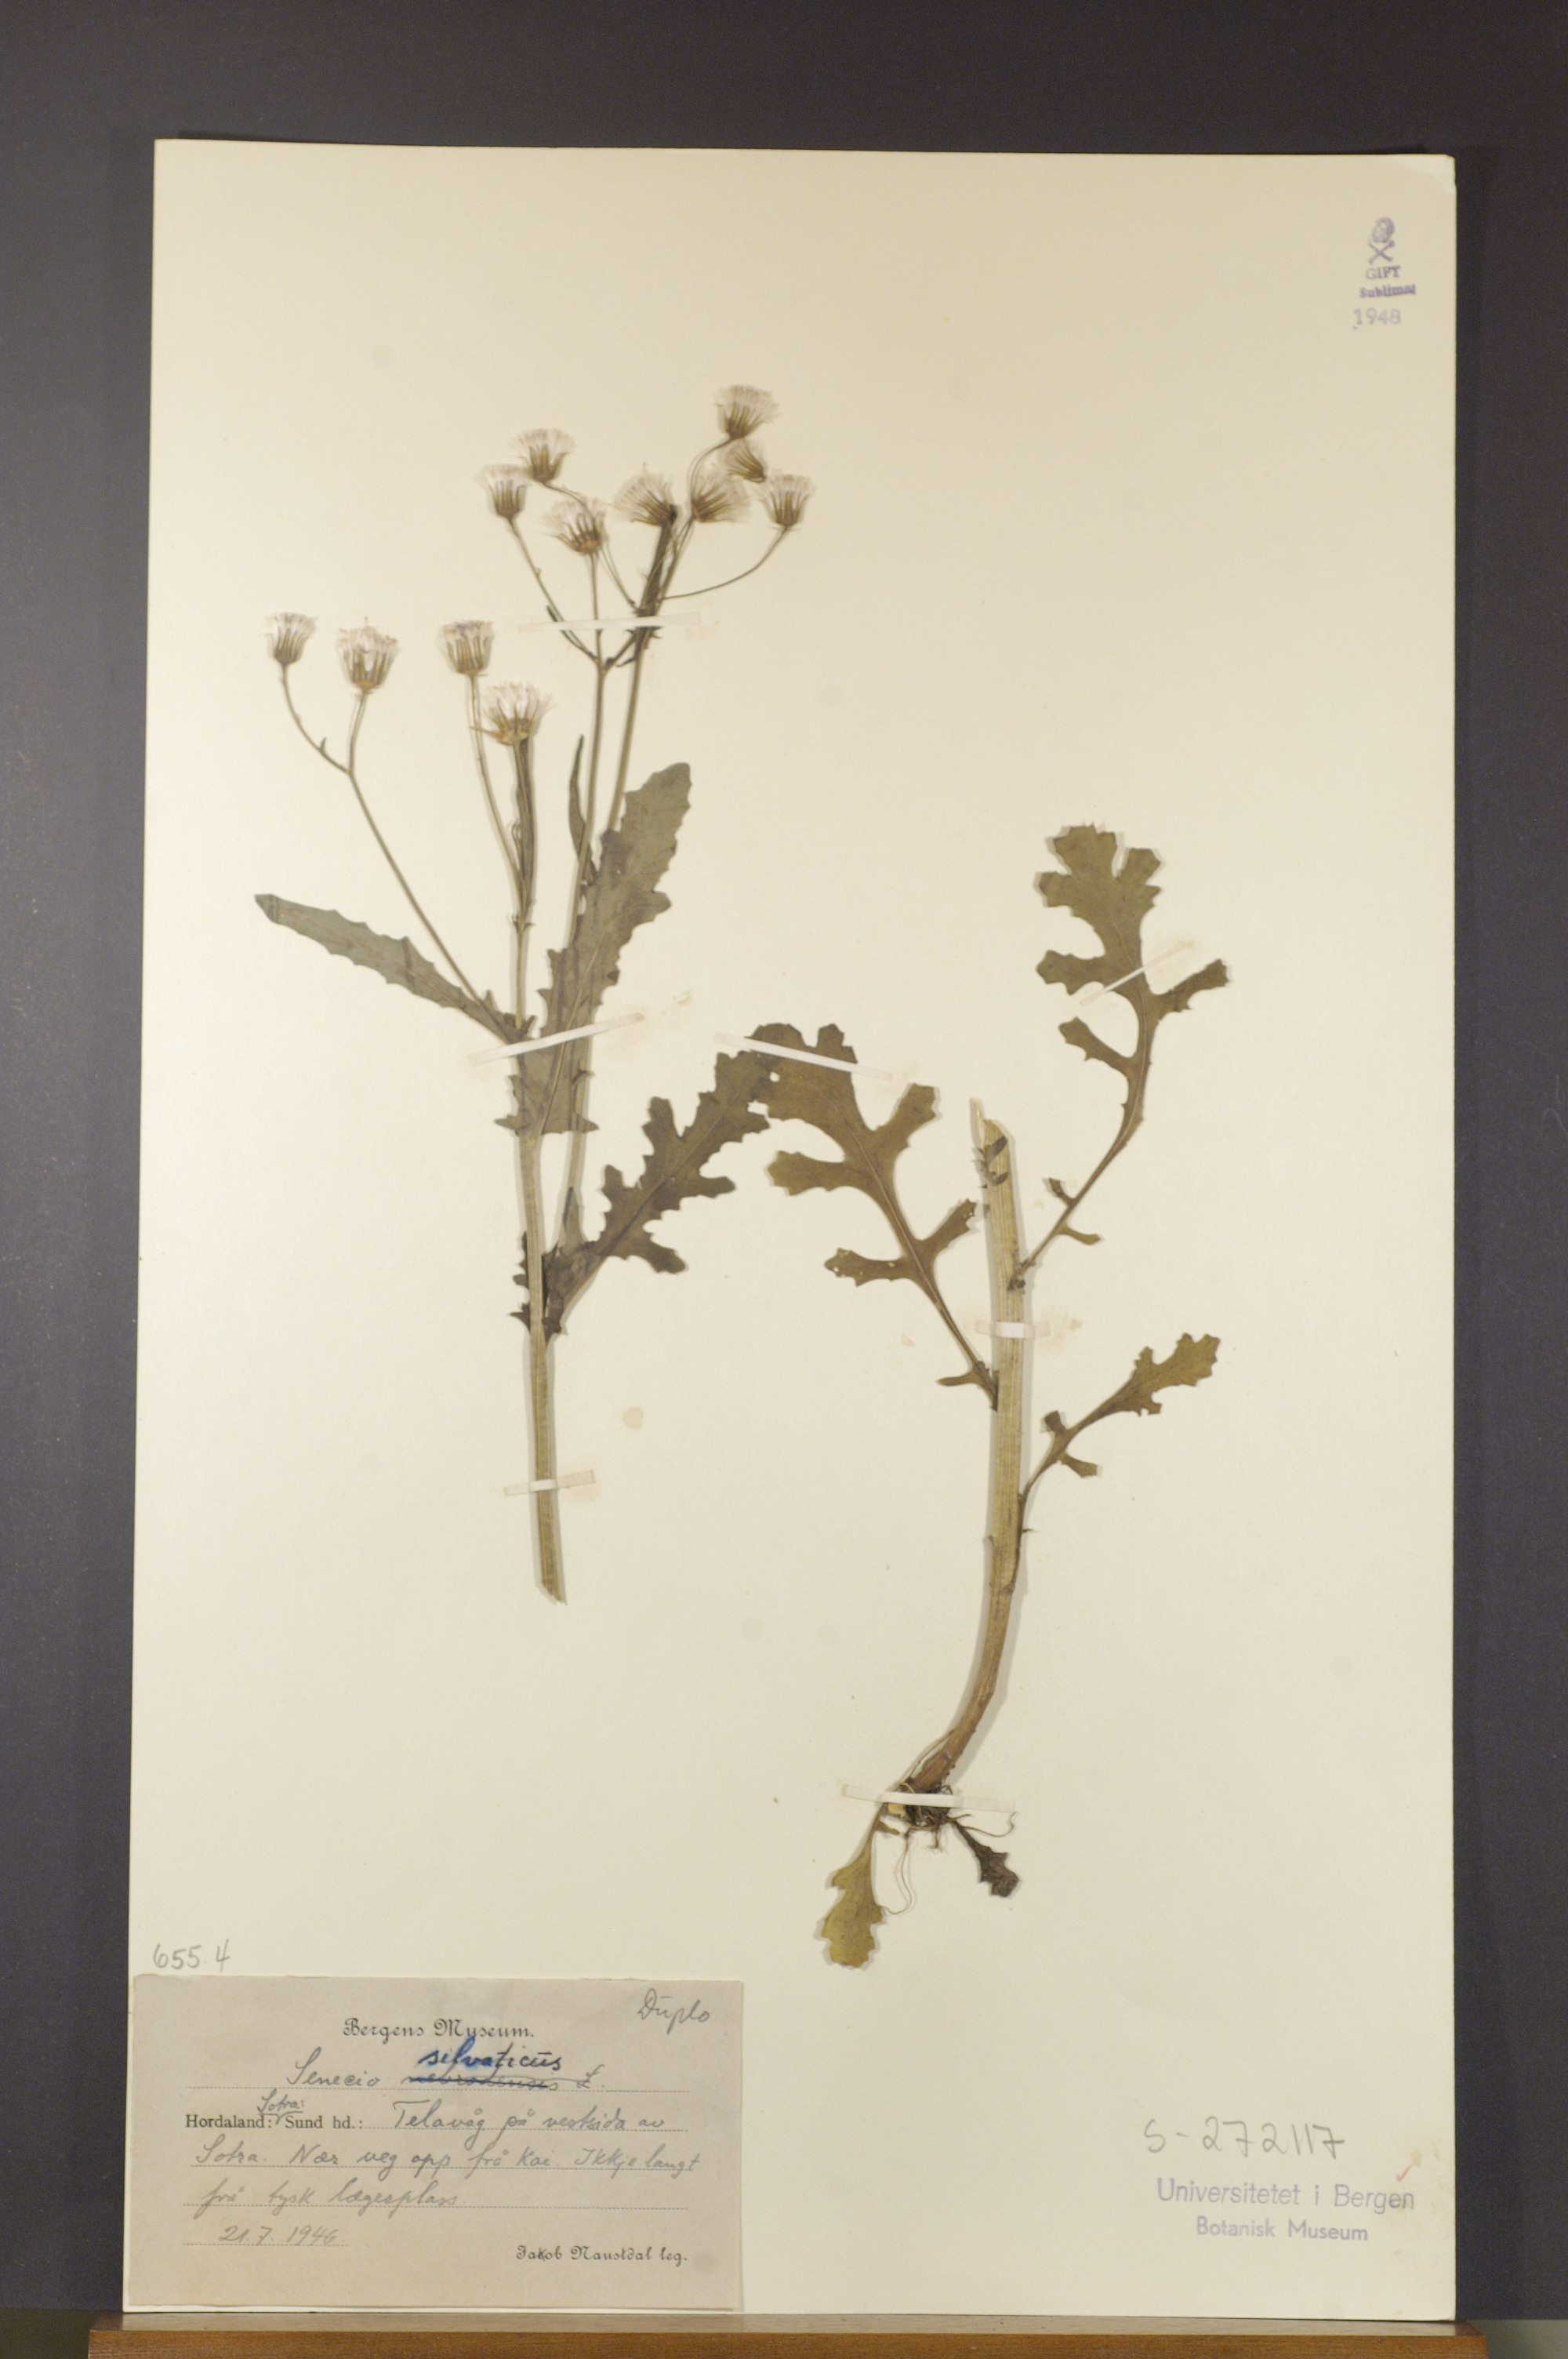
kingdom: Plantae
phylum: Tracheophyta
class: Magnoliopsida
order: Asterales
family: Asteraceae
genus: Senecio
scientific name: Senecio sylvaticus
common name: Woodland ragwort
